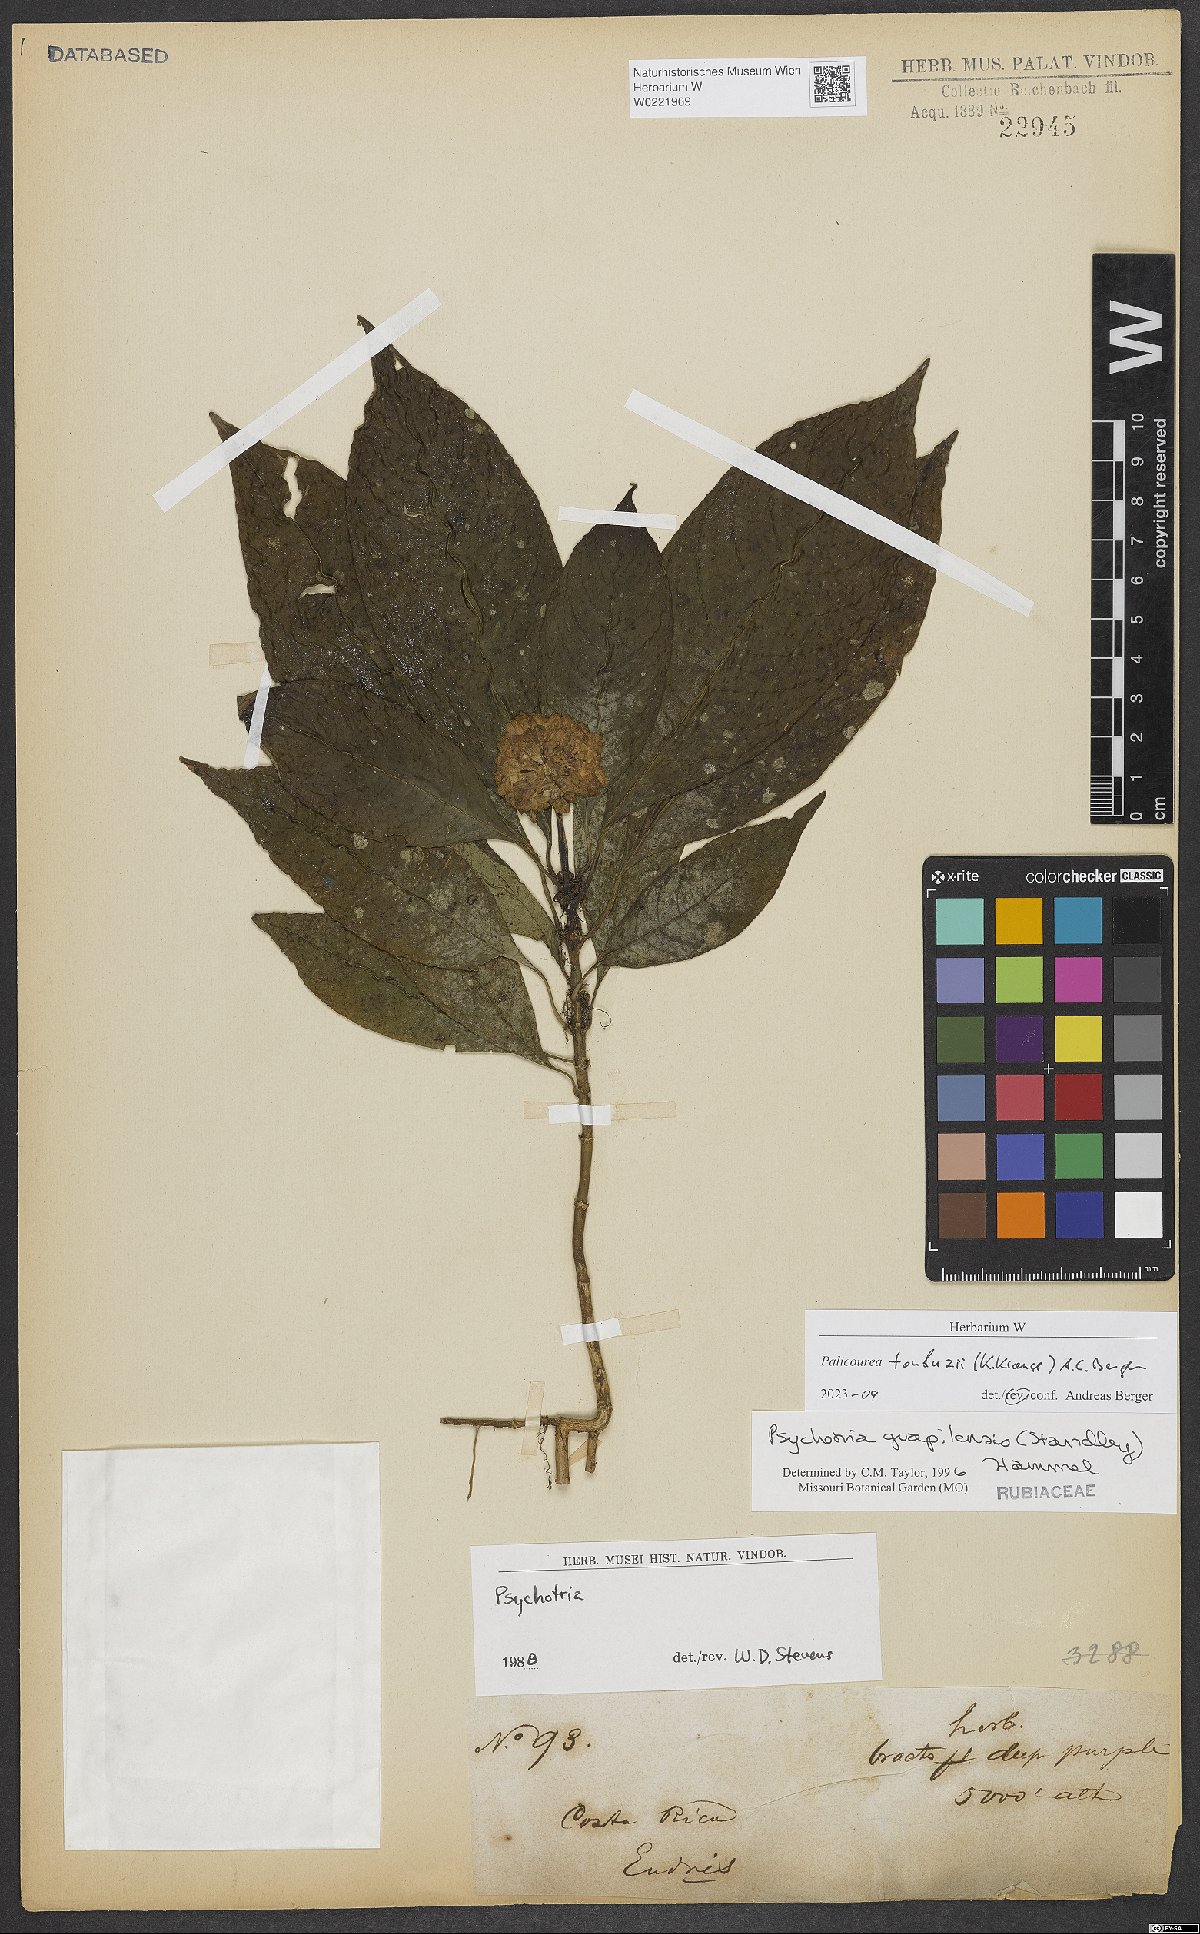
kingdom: Plantae
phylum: Tracheophyta
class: Magnoliopsida
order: Gentianales
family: Rubiaceae
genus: Palicourea
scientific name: Palicourea tonduzii
